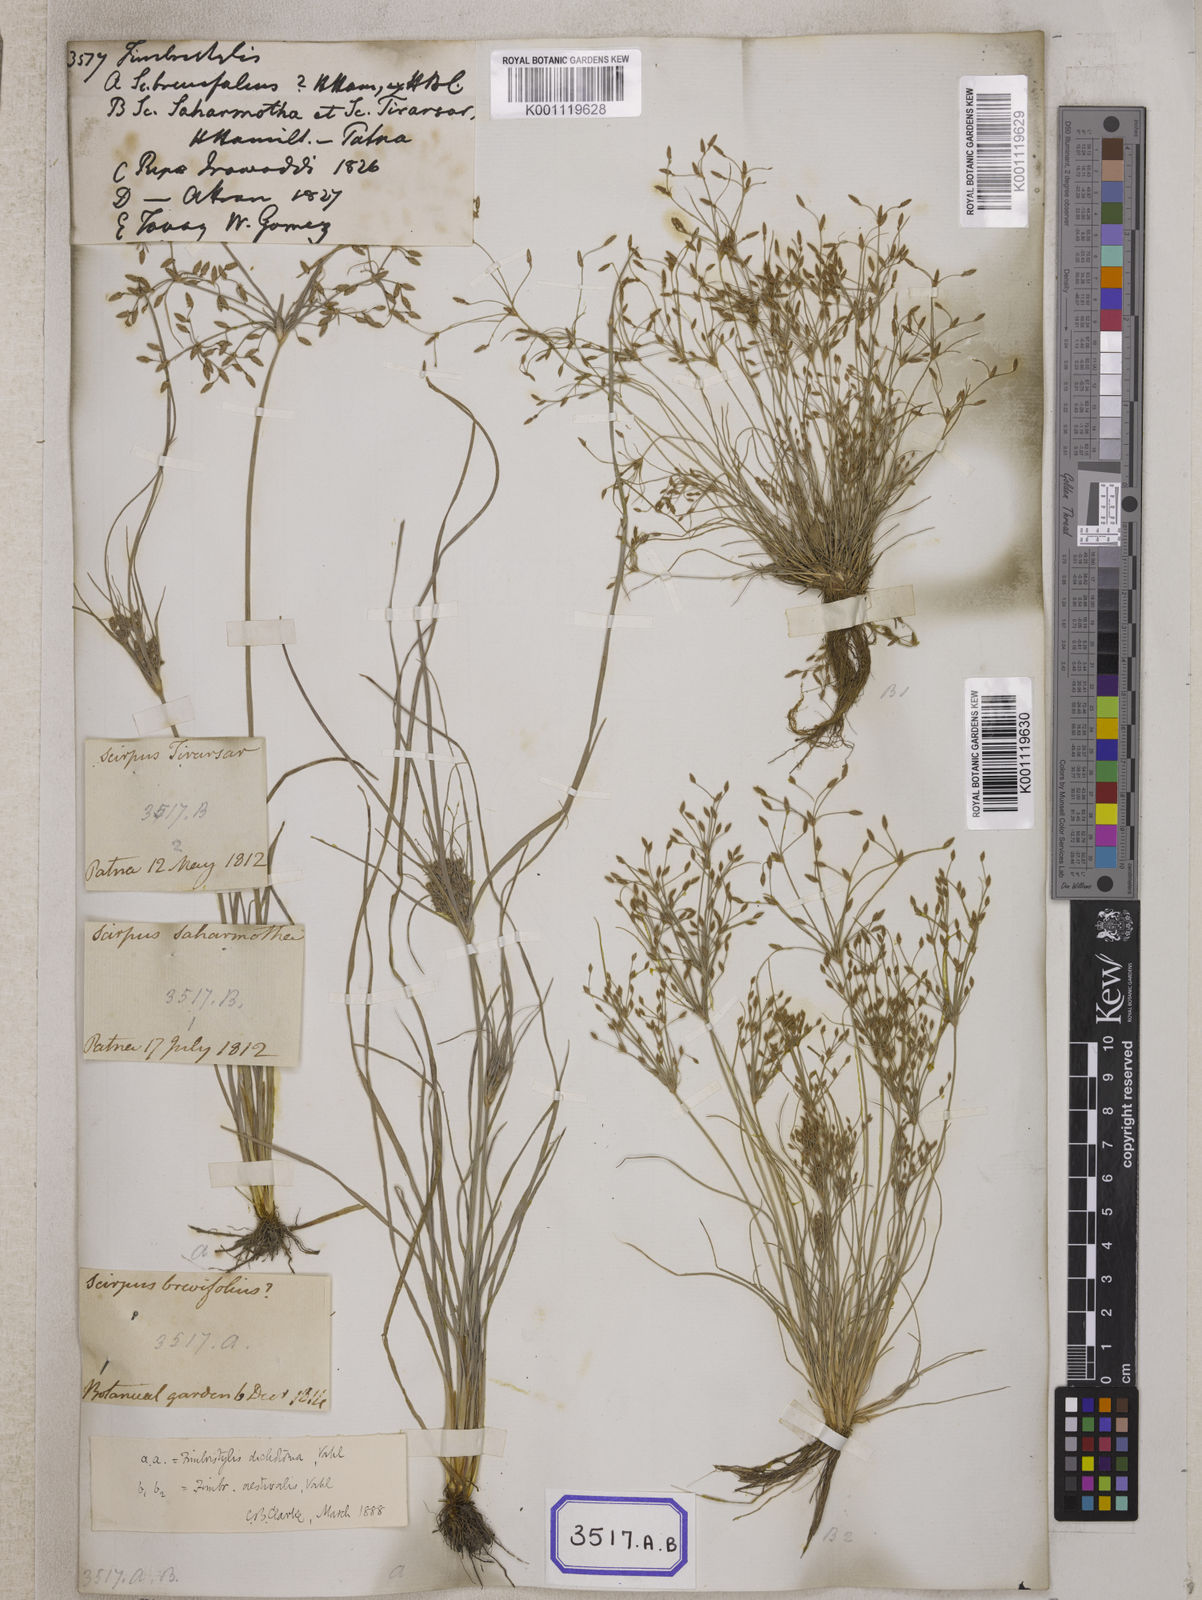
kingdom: Plantae
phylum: Tracheophyta
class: Liliopsida
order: Poales
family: Cyperaceae
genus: Fimbristylis
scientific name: Fimbristylis
